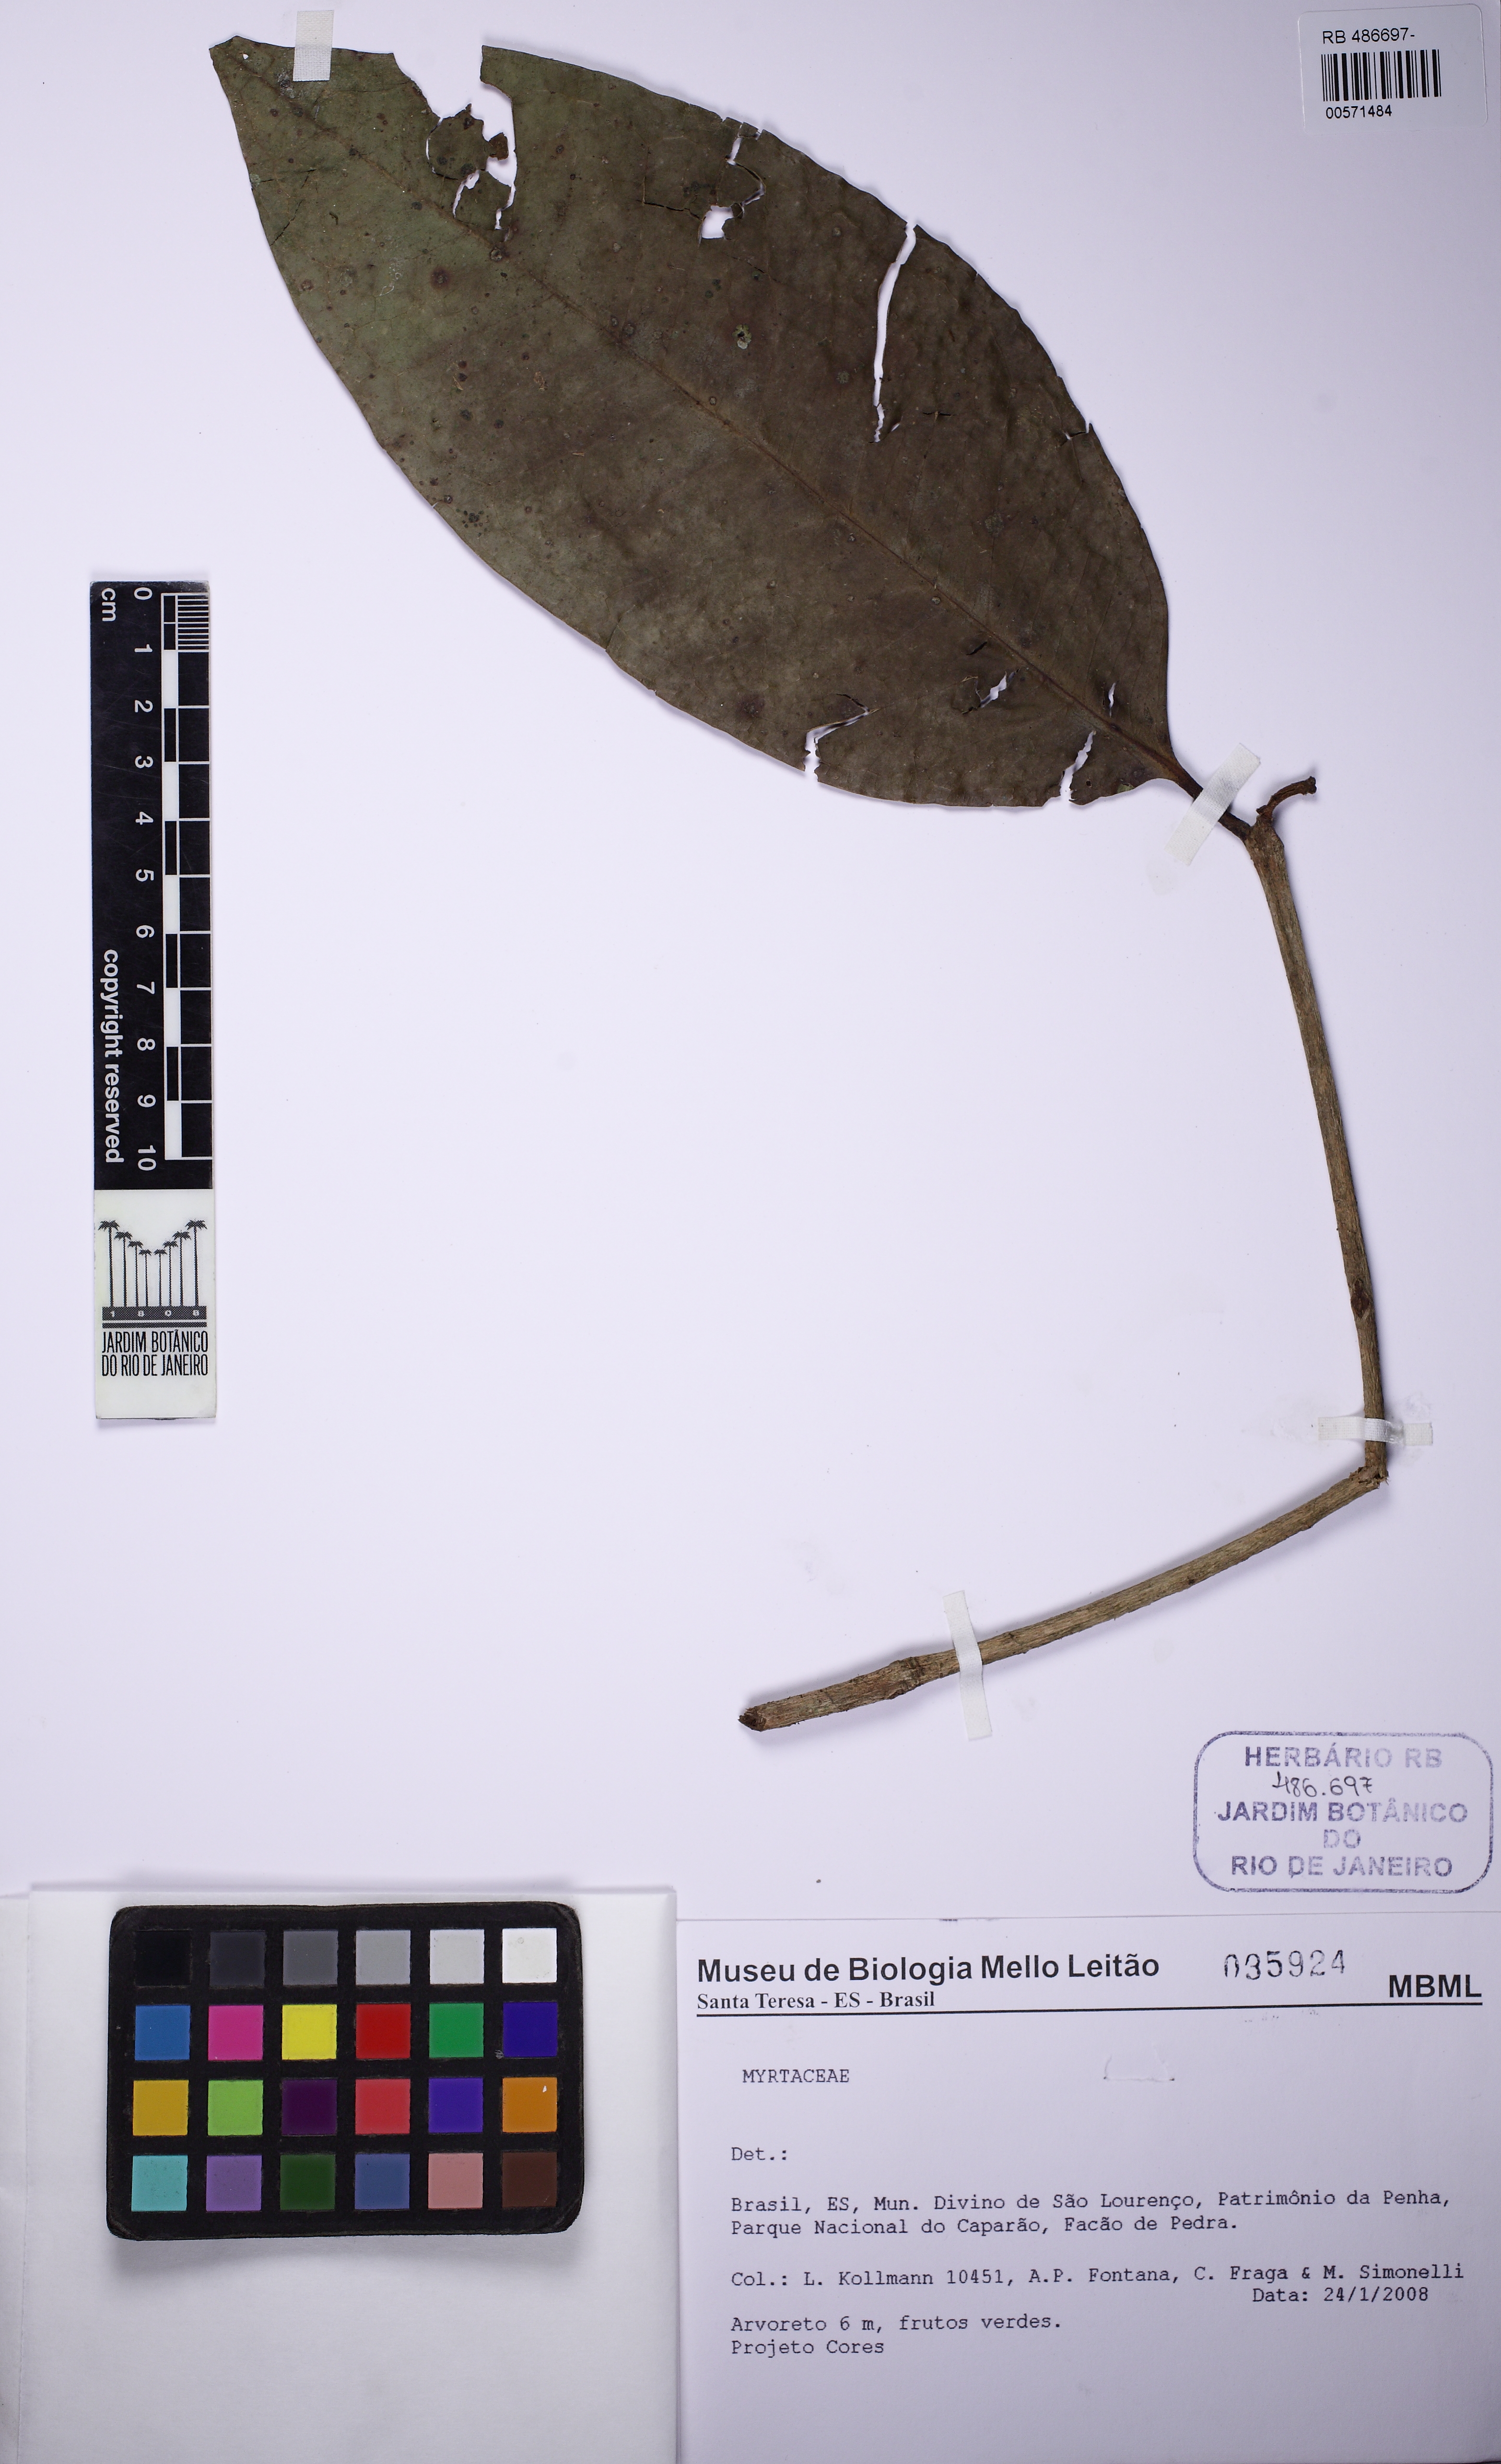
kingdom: Plantae
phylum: Tracheophyta
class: Magnoliopsida
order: Myrtales
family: Myrtaceae
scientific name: Myrtaceae
